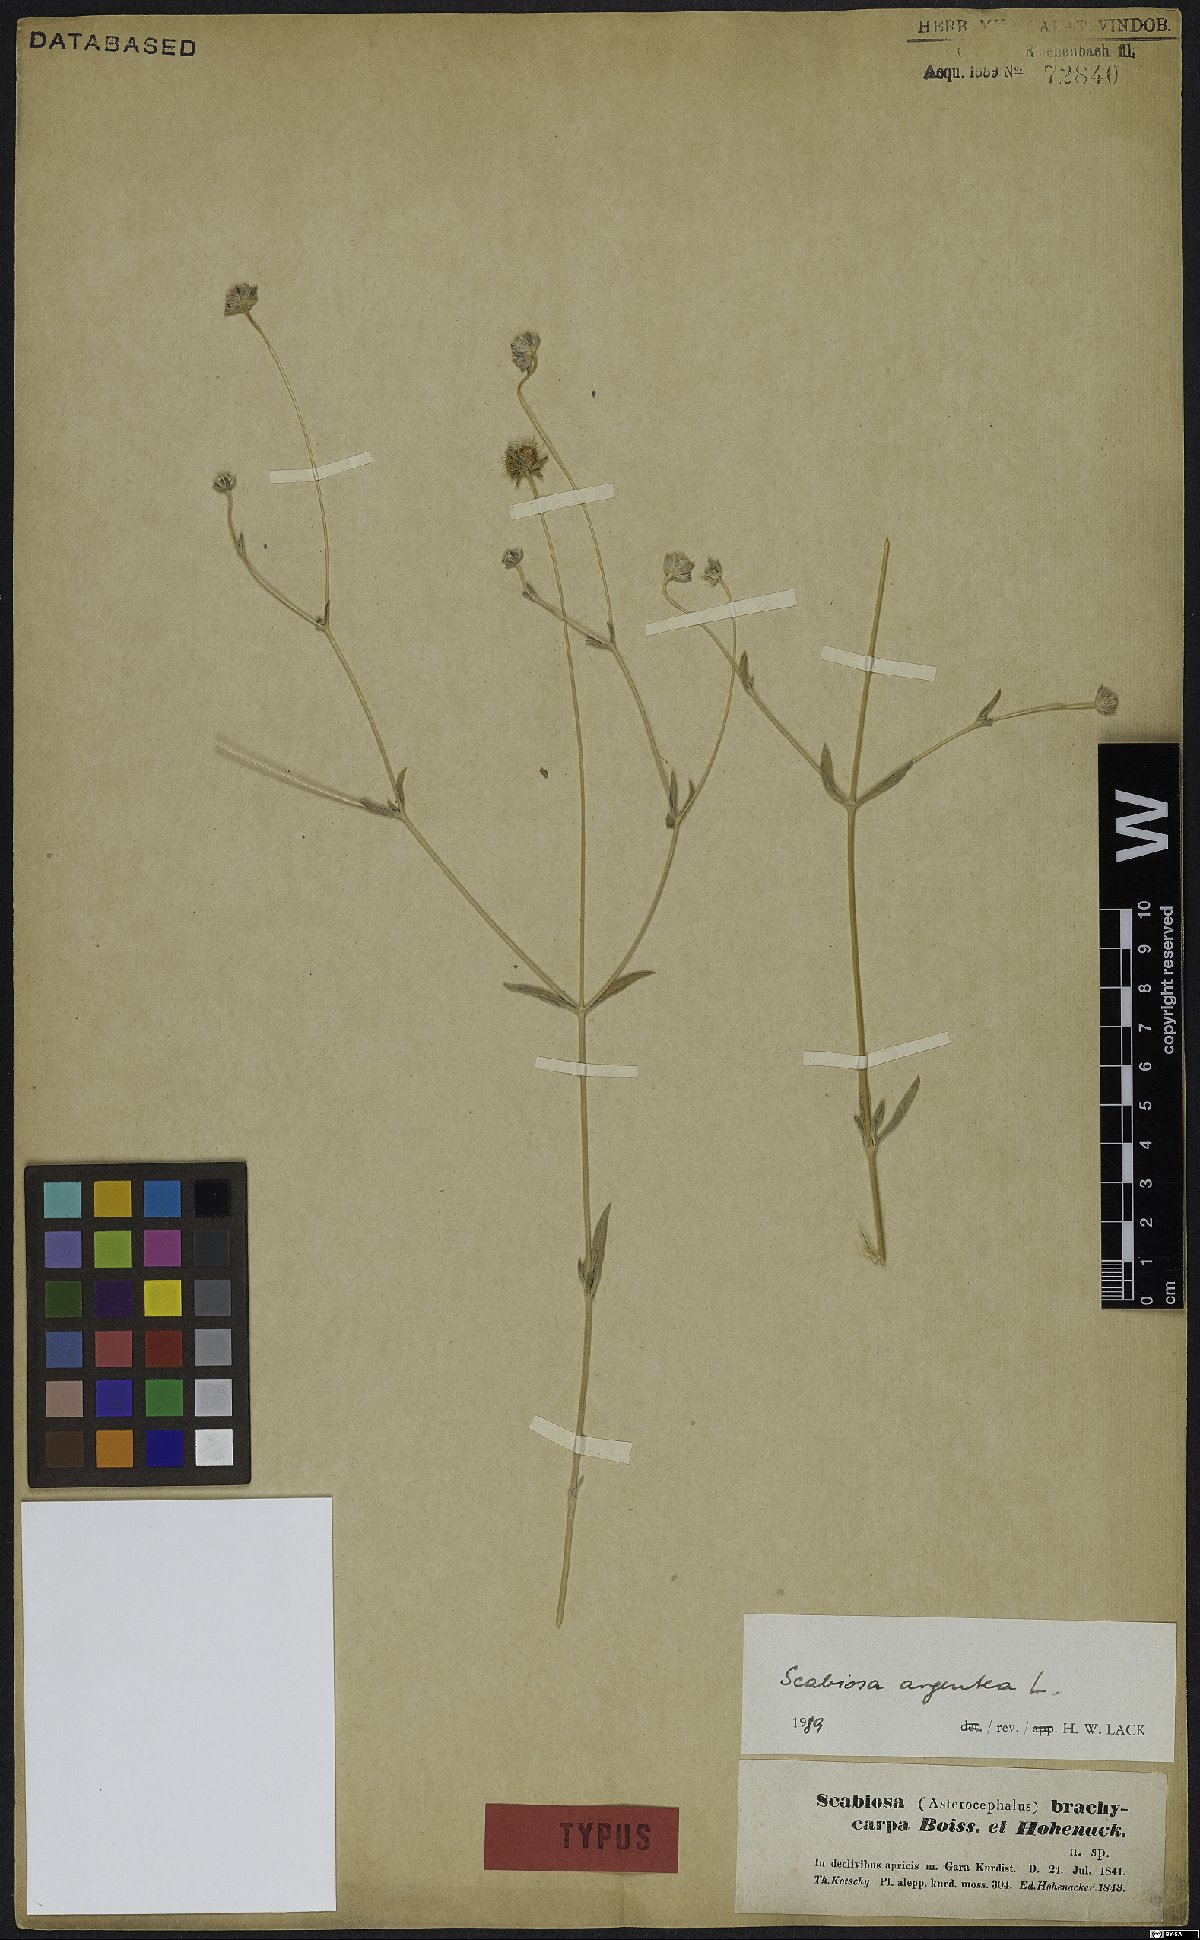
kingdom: Plantae
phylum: Tracheophyta
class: Magnoliopsida
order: Dipsacales
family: Caprifoliaceae
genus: Lomelosia
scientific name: Lomelosia argentea
